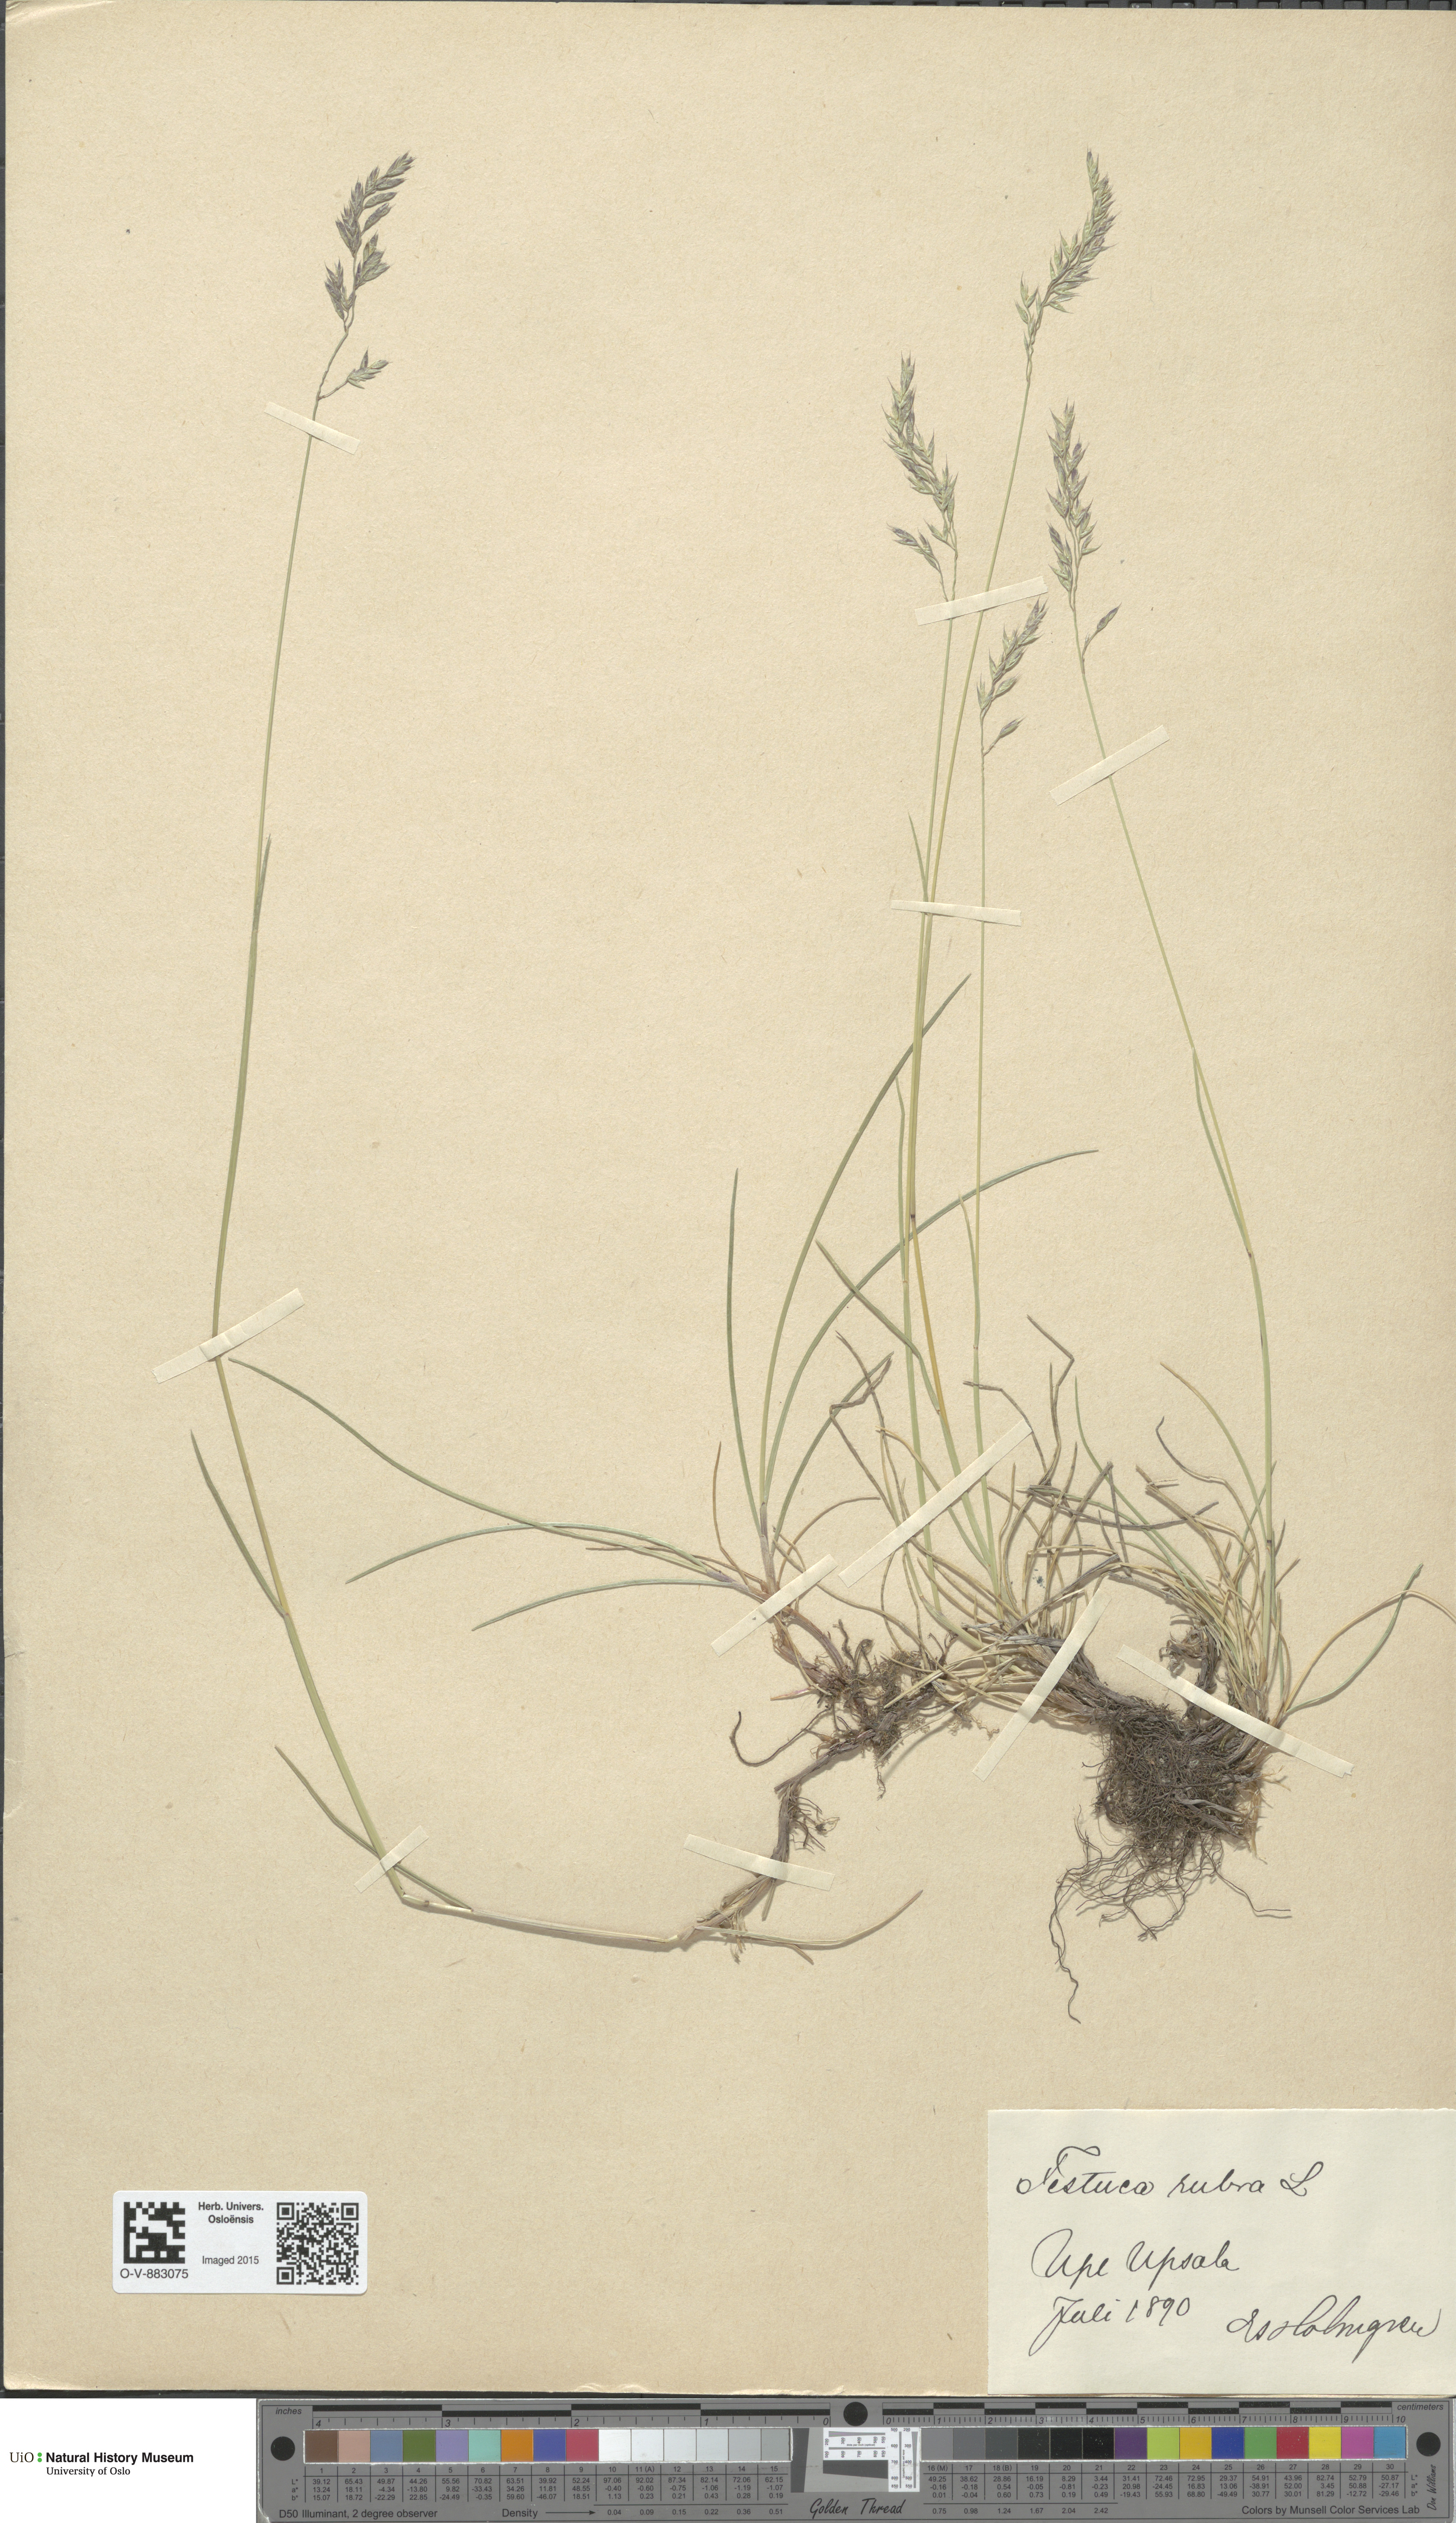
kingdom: Plantae
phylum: Tracheophyta
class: Liliopsida
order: Poales
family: Poaceae
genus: Festuca
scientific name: Festuca rubra
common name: Red fescue
